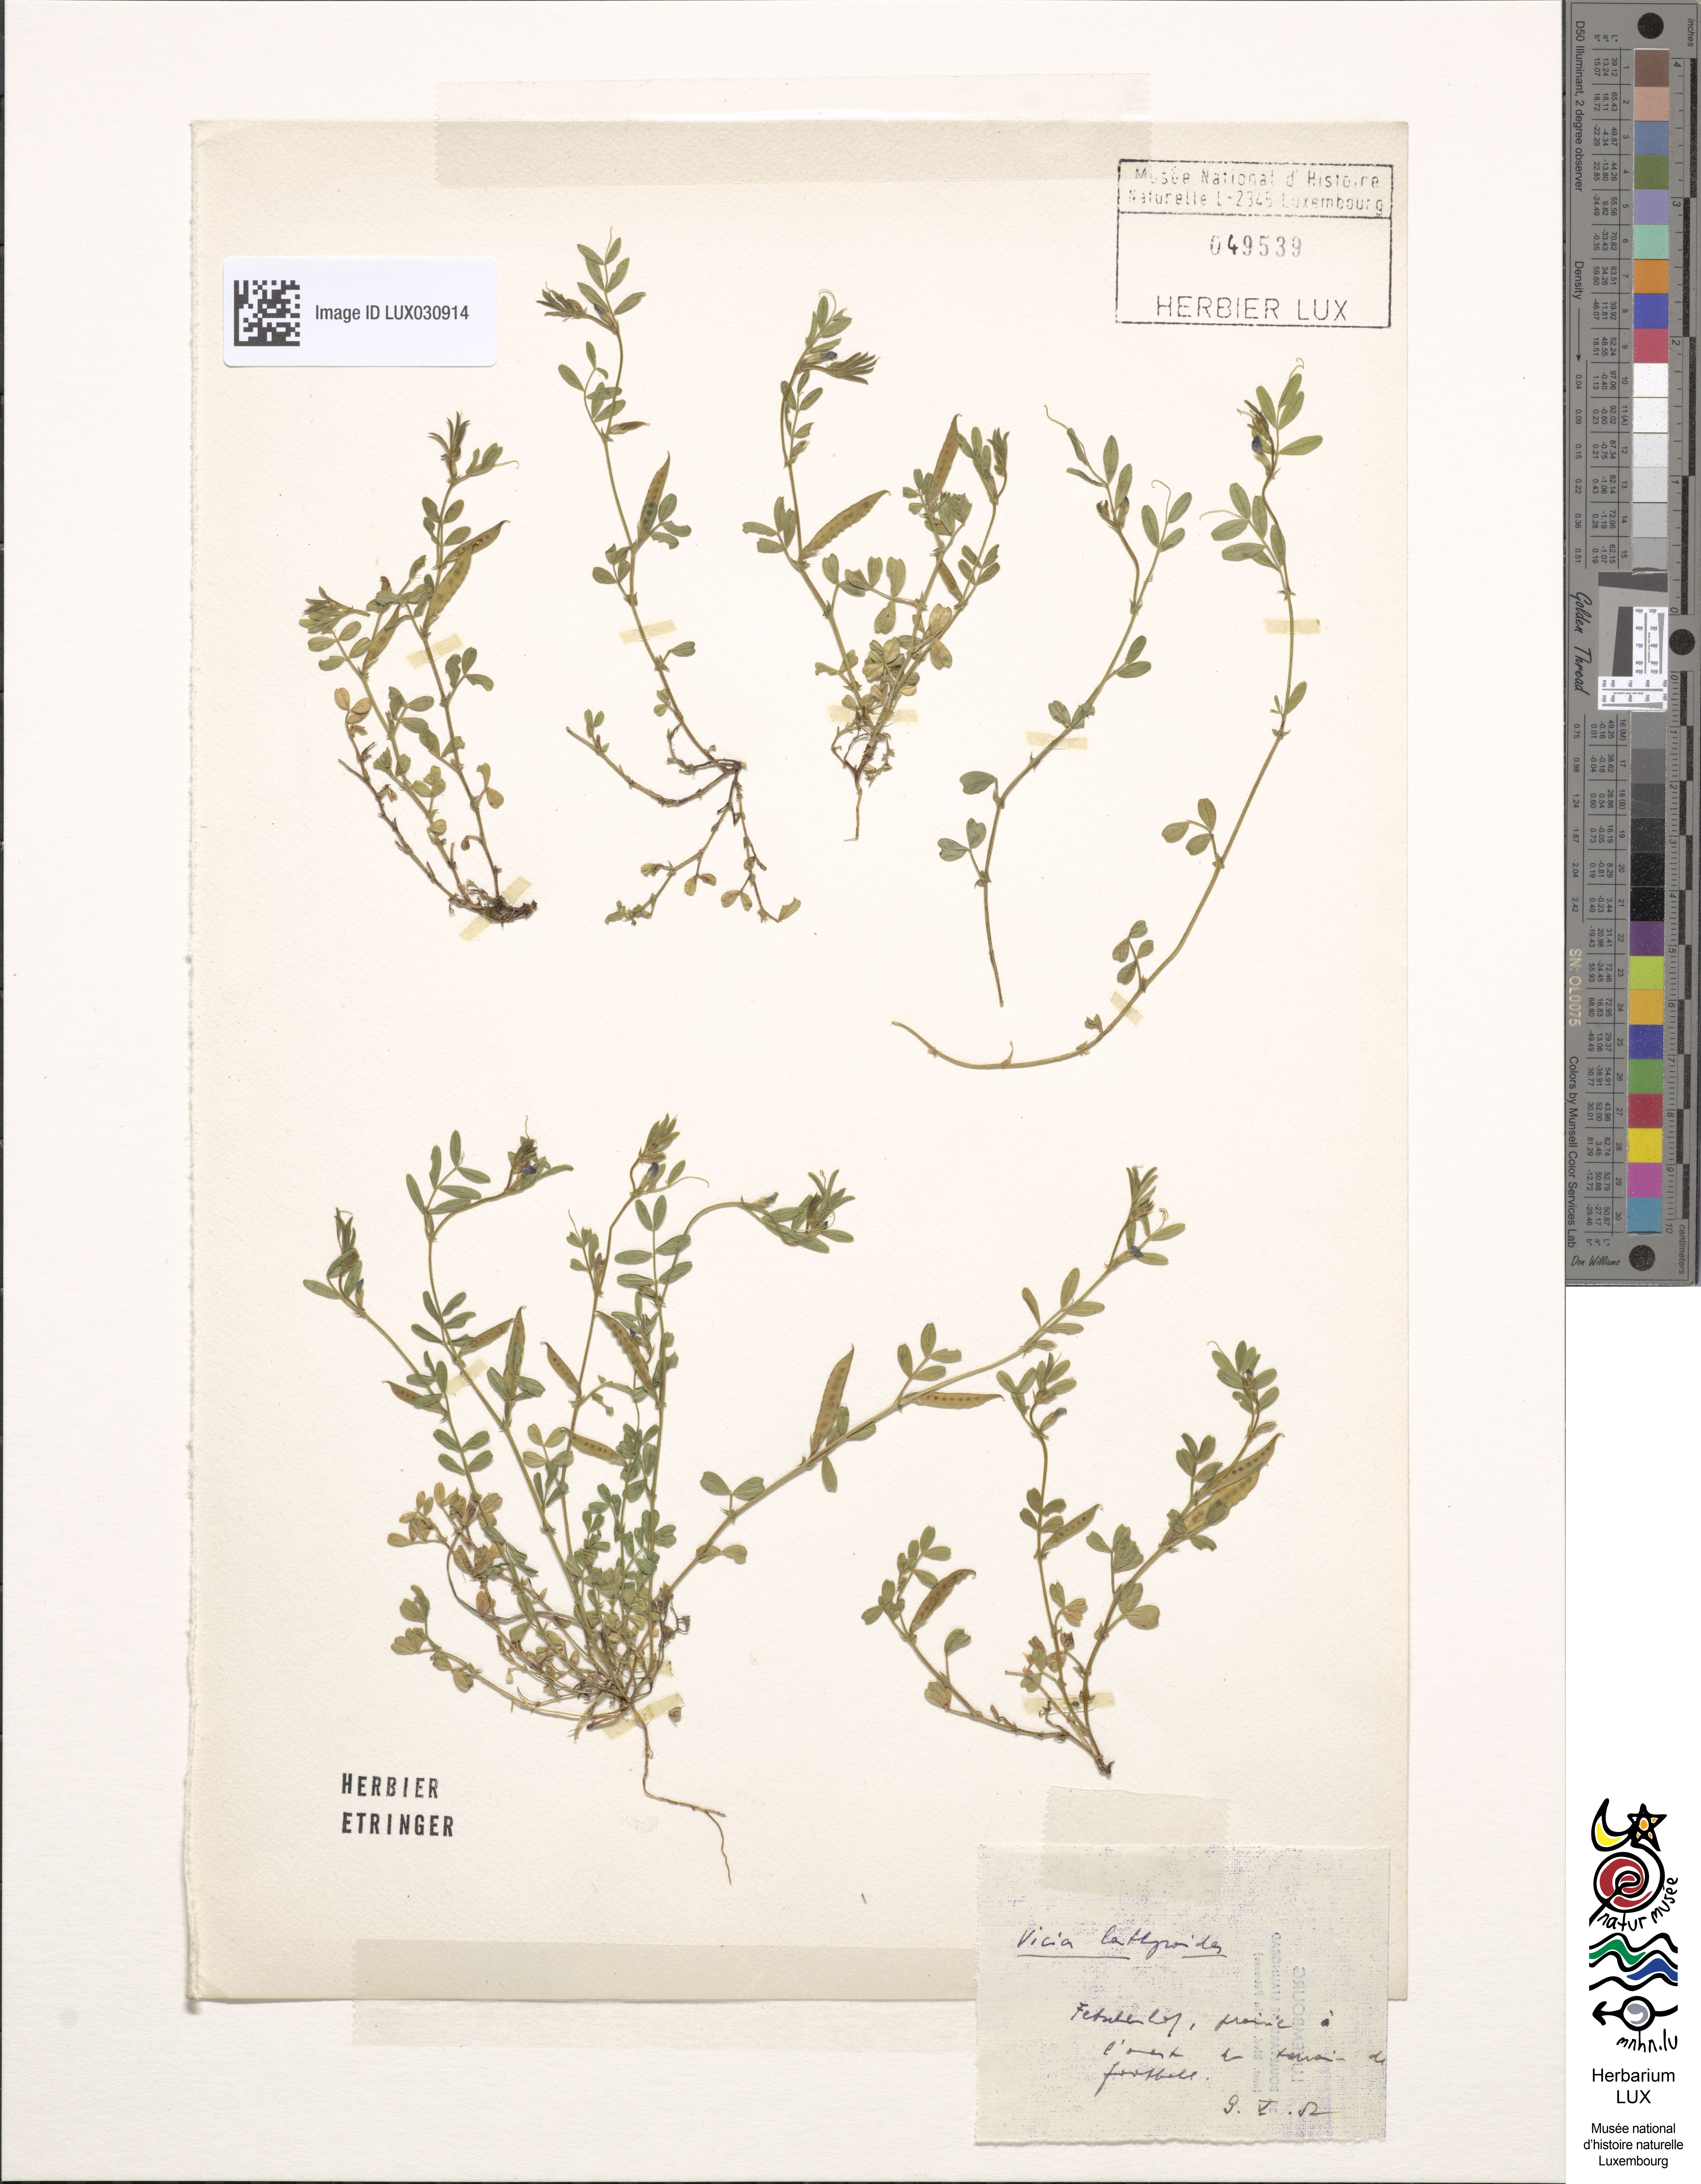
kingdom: Plantae
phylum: Tracheophyta
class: Magnoliopsida
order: Fabales
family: Fabaceae
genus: Vicia
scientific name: Vicia lathyroides
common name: Spring vetch
